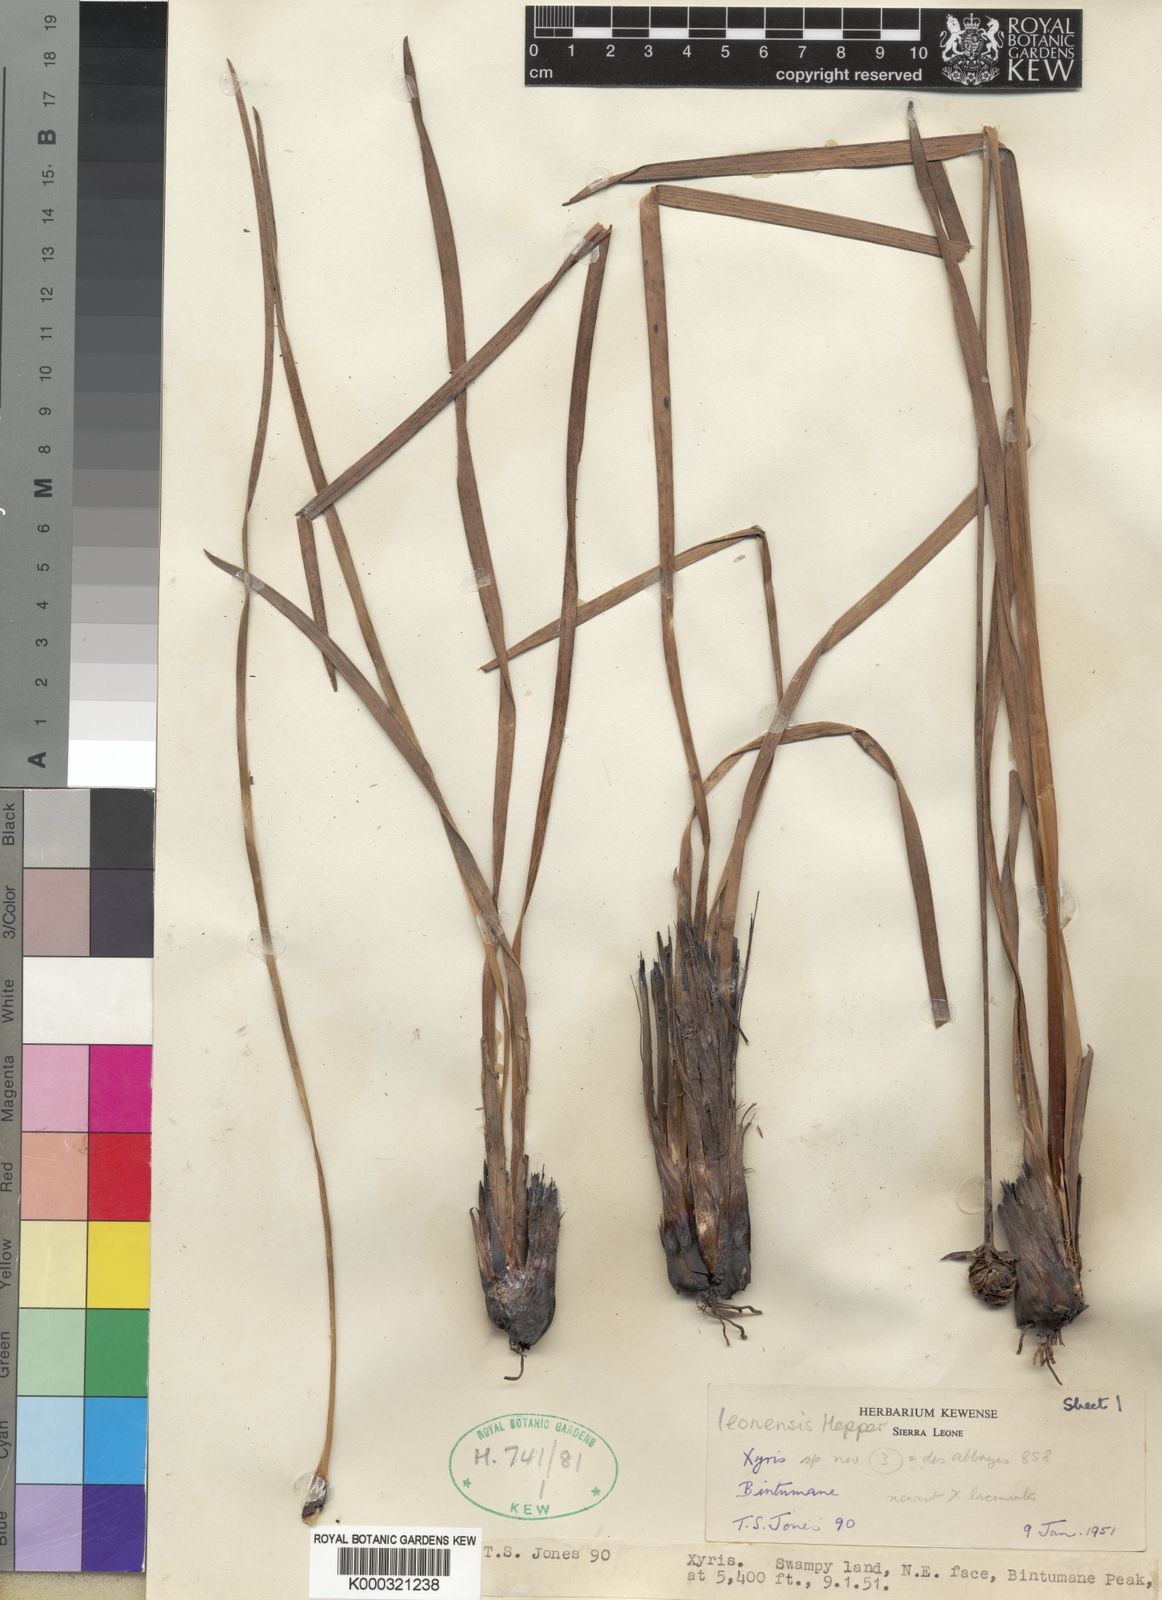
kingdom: Plantae
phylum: Tracheophyta
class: Liliopsida
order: Poales
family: Xyridaceae
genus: Xyris
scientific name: Xyris leonensis
